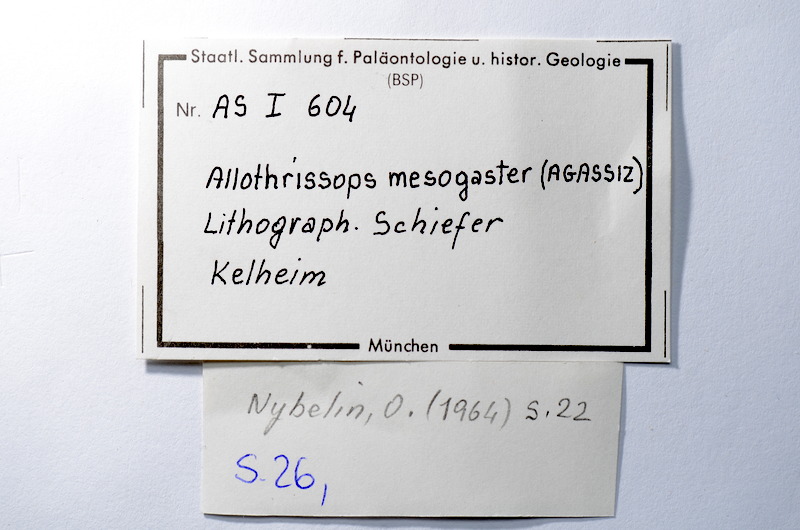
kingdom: Animalia
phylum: Chordata
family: Allothrissopidae
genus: Allothrissops
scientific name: Allothrissops mesogaster
